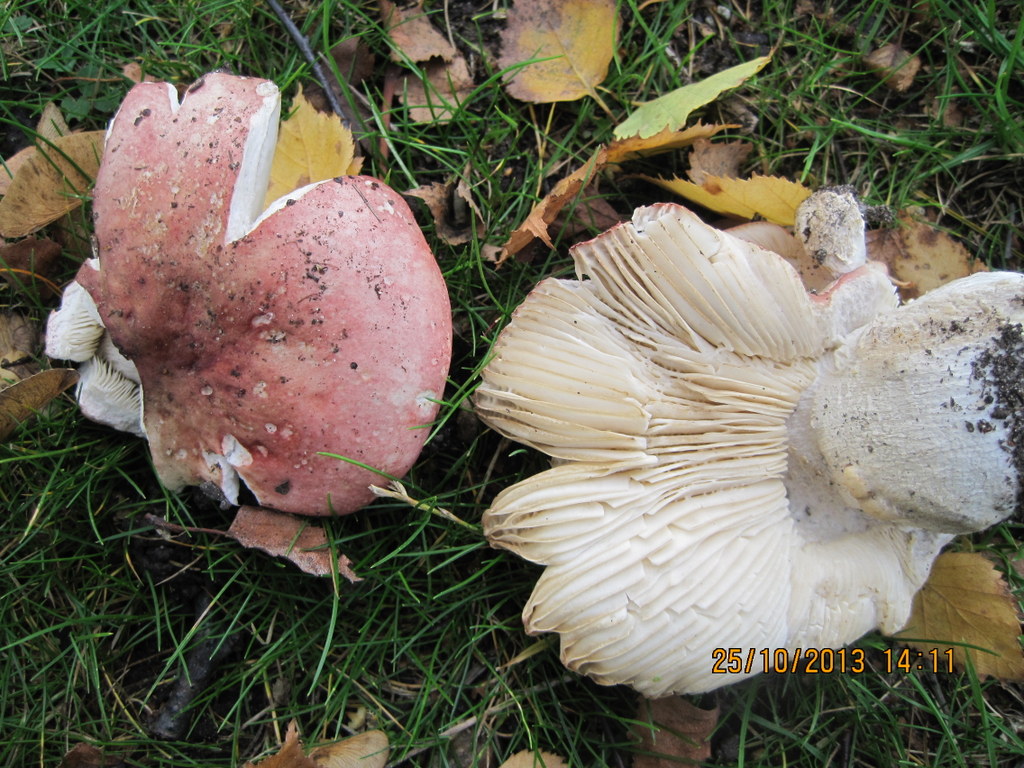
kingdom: Fungi
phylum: Basidiomycota
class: Agaricomycetes
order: Russulales
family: Russulaceae
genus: Russula
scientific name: Russula depallens
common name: falmende skørhat
